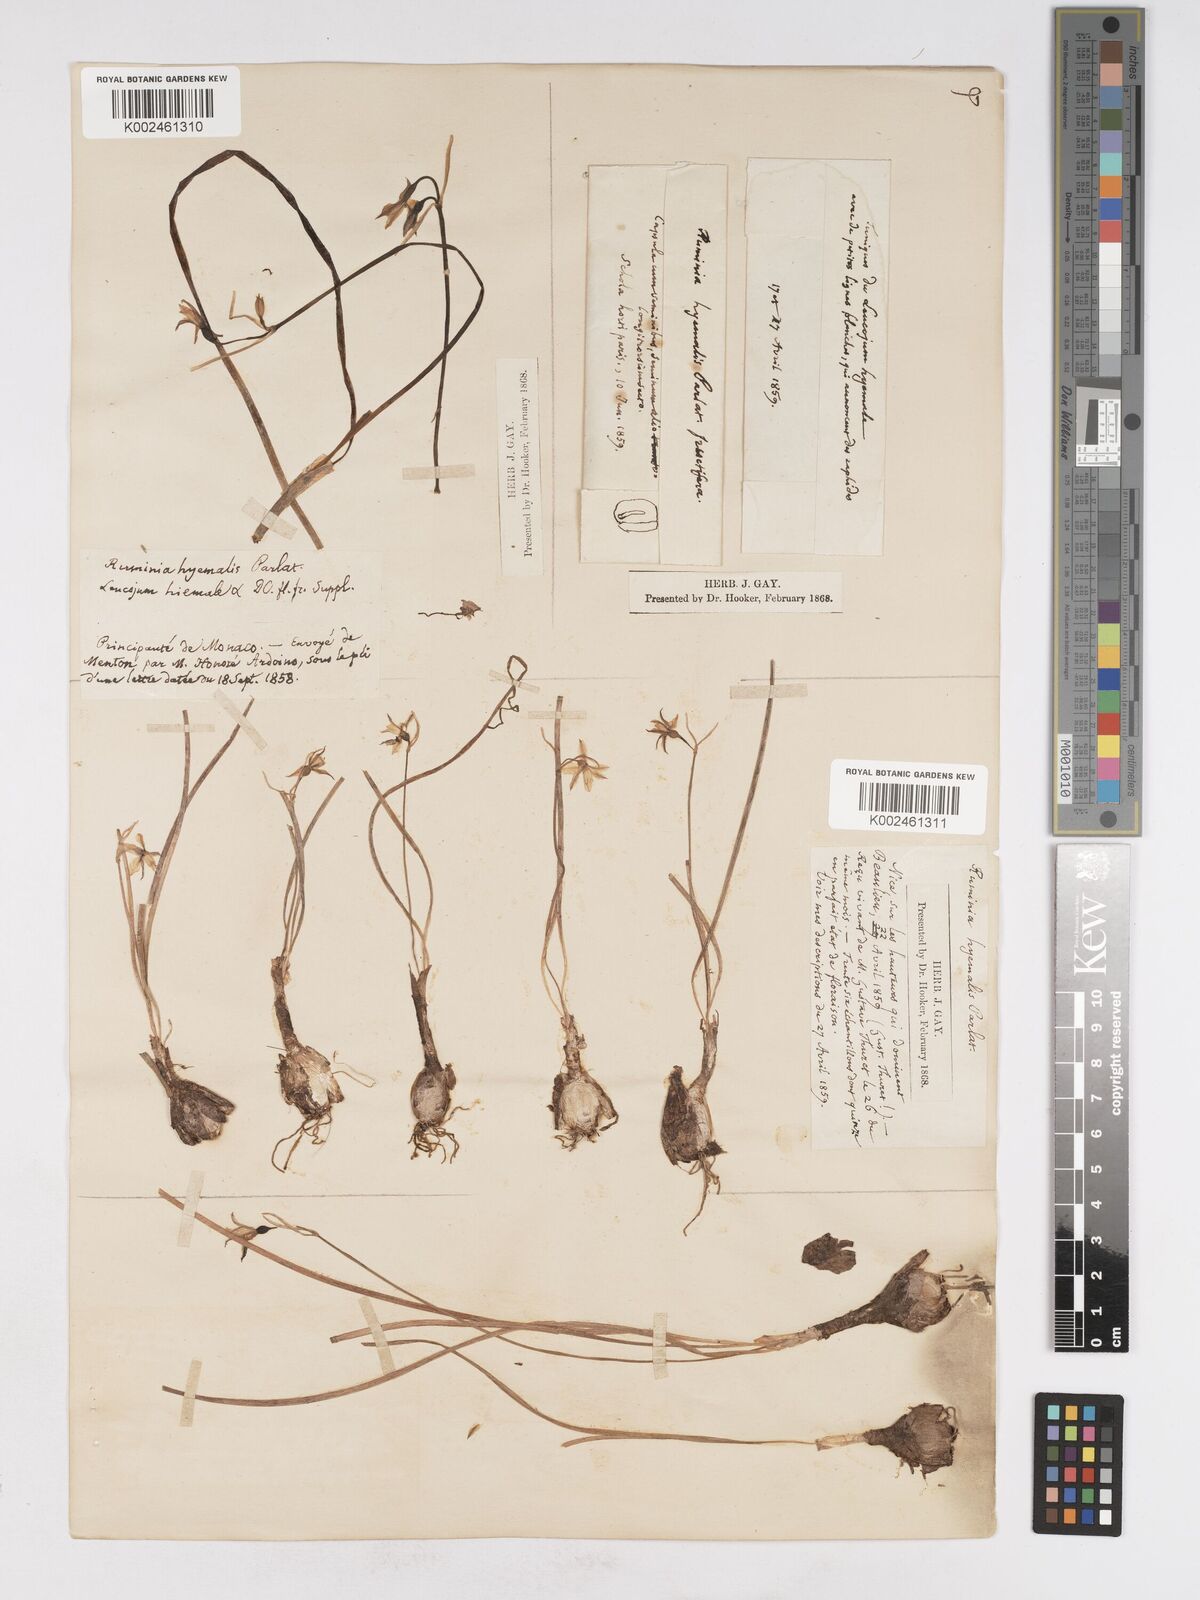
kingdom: Plantae
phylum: Tracheophyta
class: Liliopsida
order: Asparagales
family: Amaryllidaceae
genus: Acis
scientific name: Acis autumnalis
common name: Autumn snowflake
